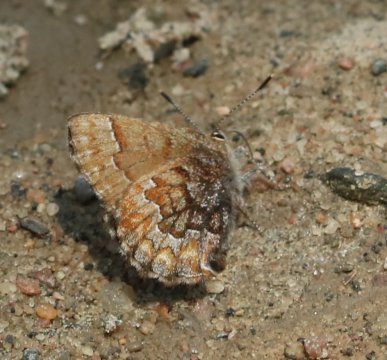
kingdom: Animalia
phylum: Arthropoda
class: Insecta
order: Lepidoptera
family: Lycaenidae
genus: Incisalia
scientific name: Incisalia niphon
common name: Eastern Pine Elfin
